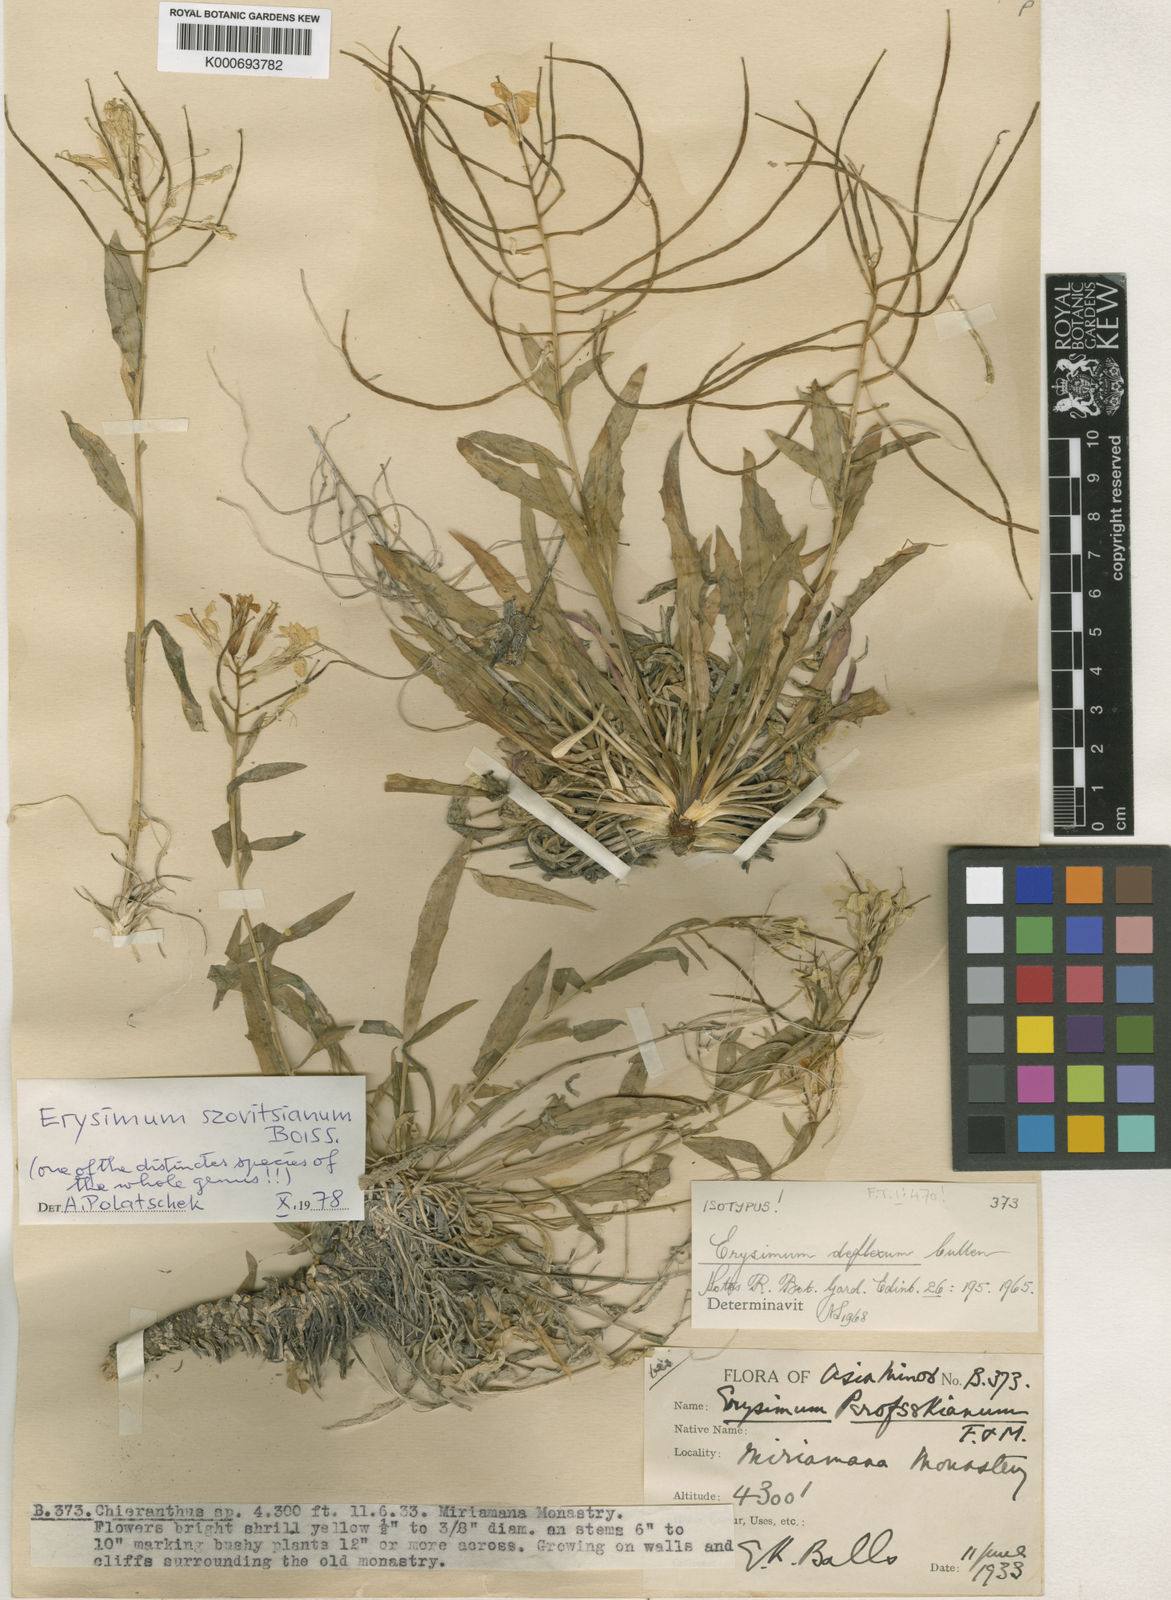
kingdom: Plantae
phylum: Tracheophyta
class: Magnoliopsida
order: Brassicales
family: Brassicaceae
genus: Erysimum
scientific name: Erysimum szowitsianum
